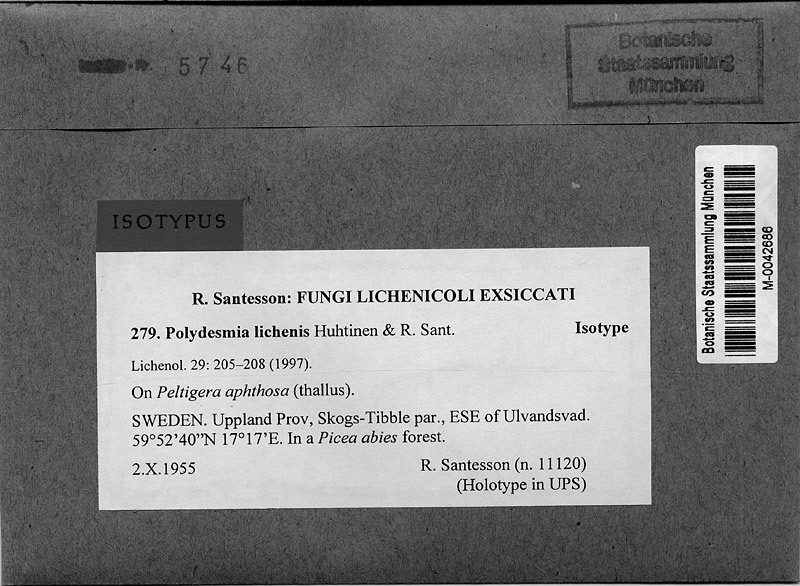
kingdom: Fungi
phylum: Ascomycota
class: Leotiomycetes
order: Helotiales
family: Hyaloscyphaceae
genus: Polydesmia
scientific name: Polydesmia lichenis
